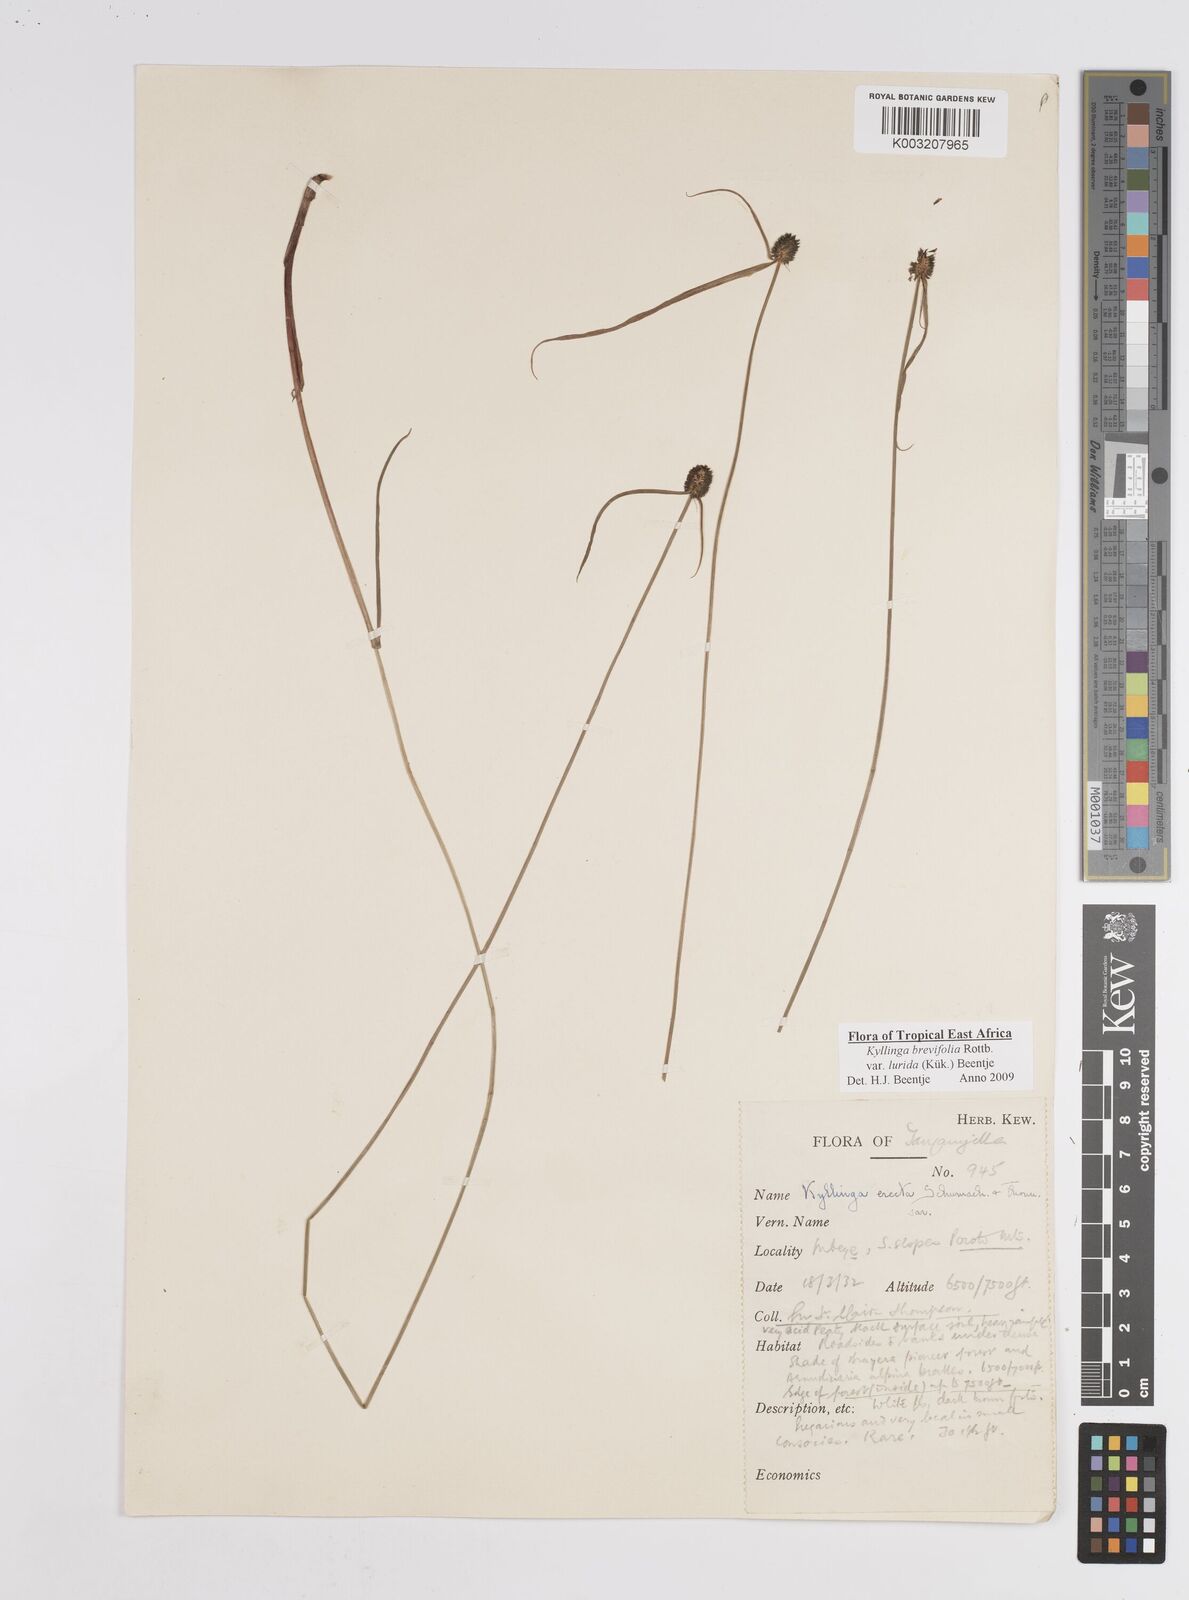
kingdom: Plantae
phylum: Tracheophyta
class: Liliopsida
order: Poales
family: Cyperaceae
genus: Cyperus
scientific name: Cyperus erectus
